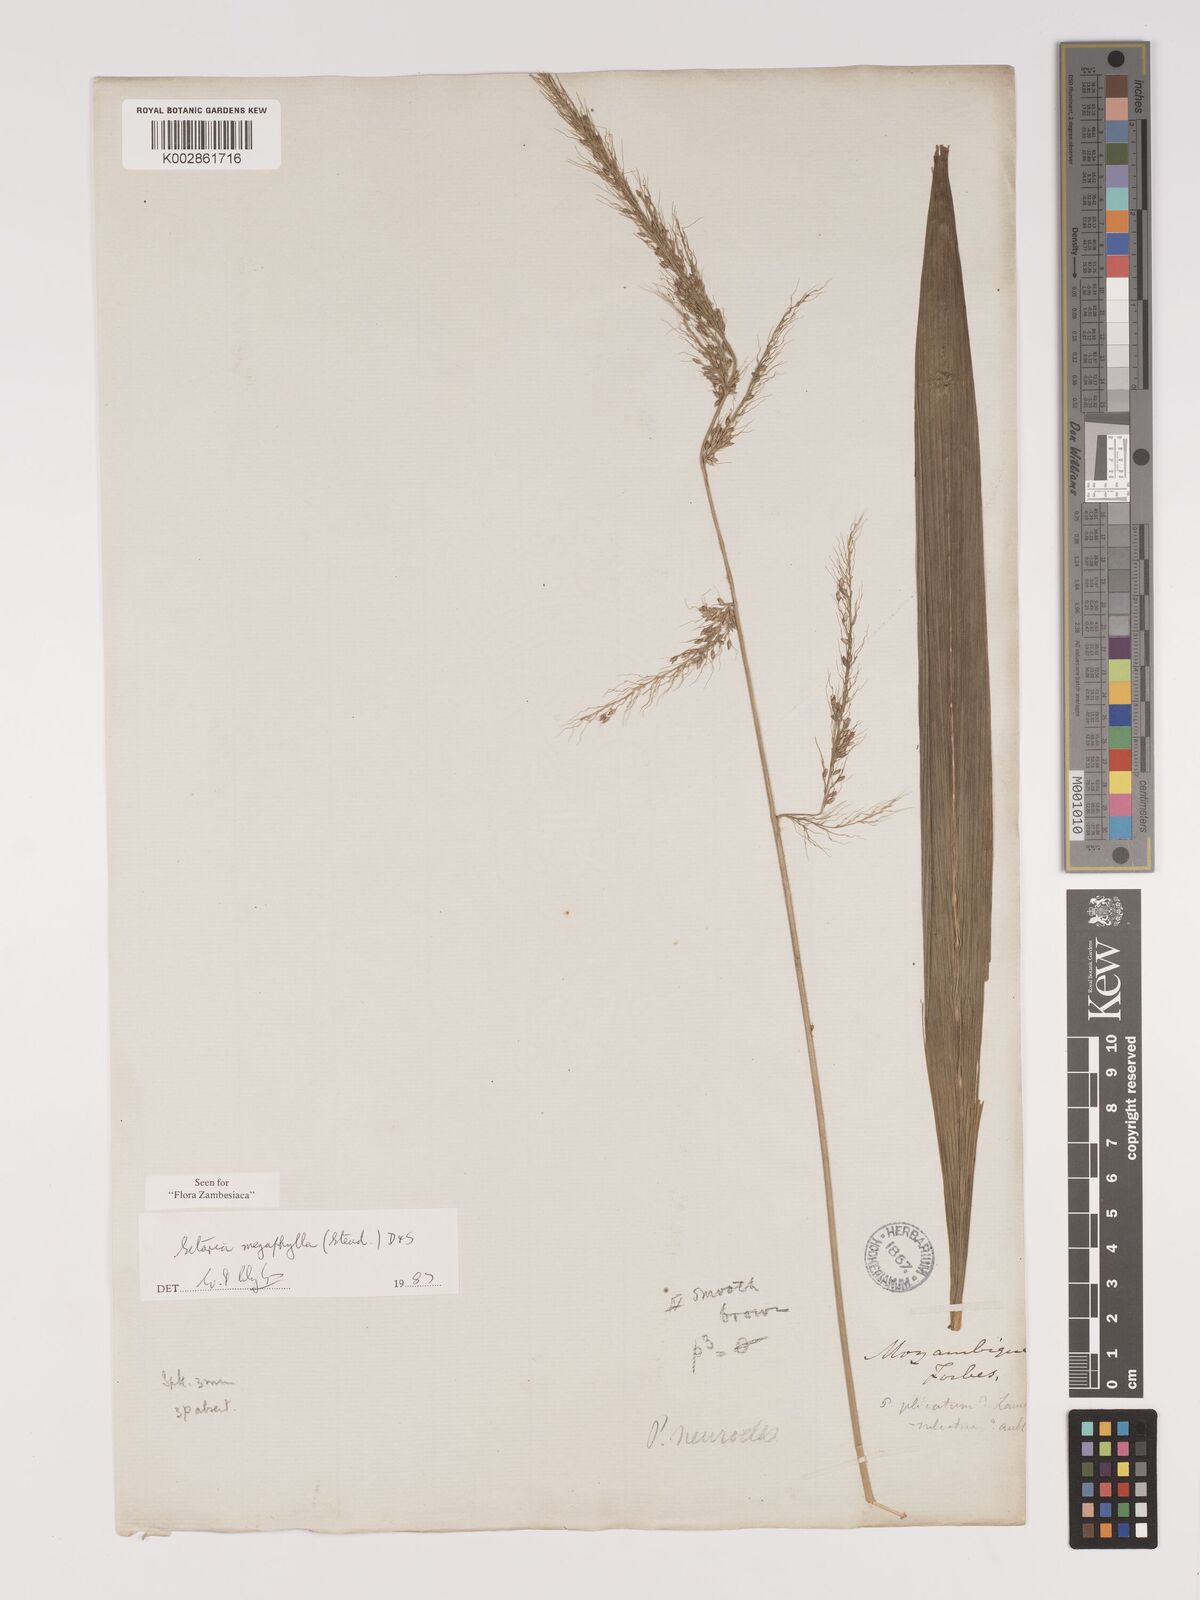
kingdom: Plantae
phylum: Tracheophyta
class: Liliopsida
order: Poales
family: Poaceae
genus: Setaria
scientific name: Setaria megaphylla
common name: Bigleaf bristlegrass
